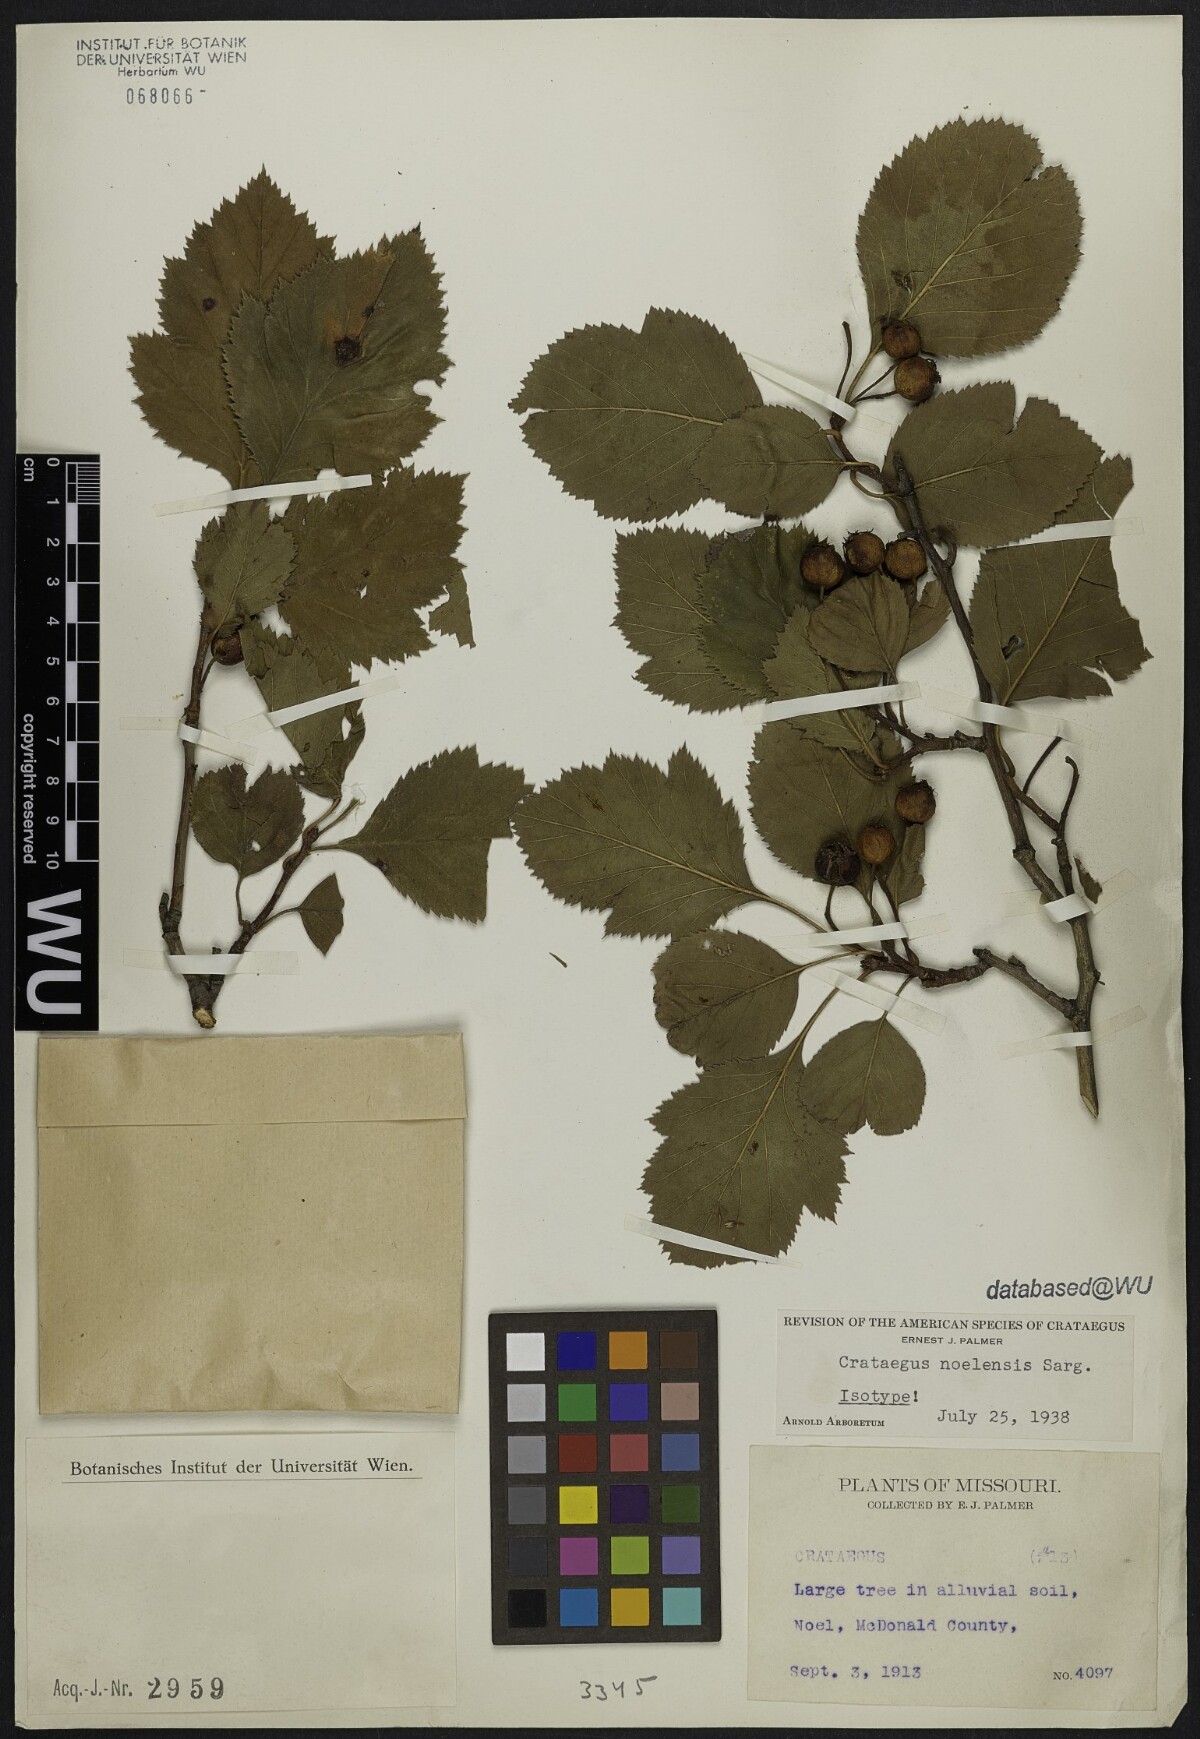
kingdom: Plantae
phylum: Tracheophyta
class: Magnoliopsida
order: Rosales
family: Rosaceae
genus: Crataegus
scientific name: Crataegus
